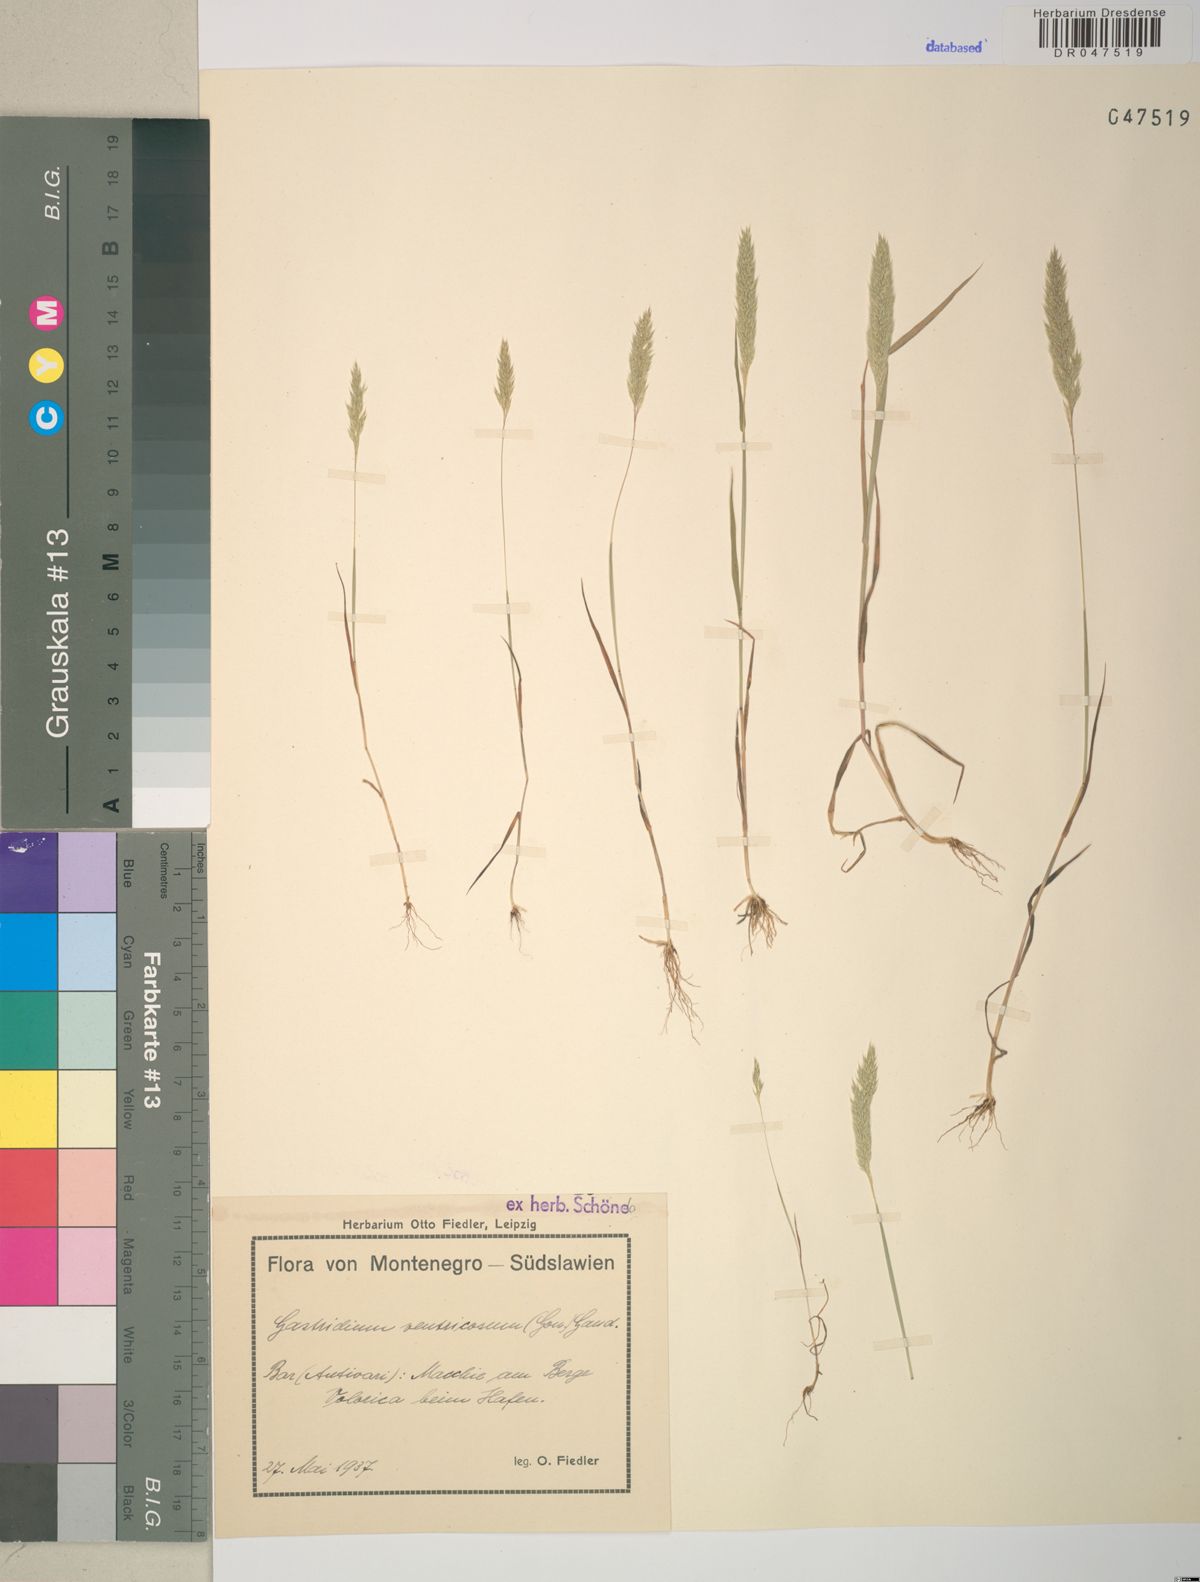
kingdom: Plantae
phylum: Tracheophyta
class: Liliopsida
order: Poales
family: Poaceae
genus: Gastridium
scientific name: Gastridium ventricosum
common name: Nit-grass
